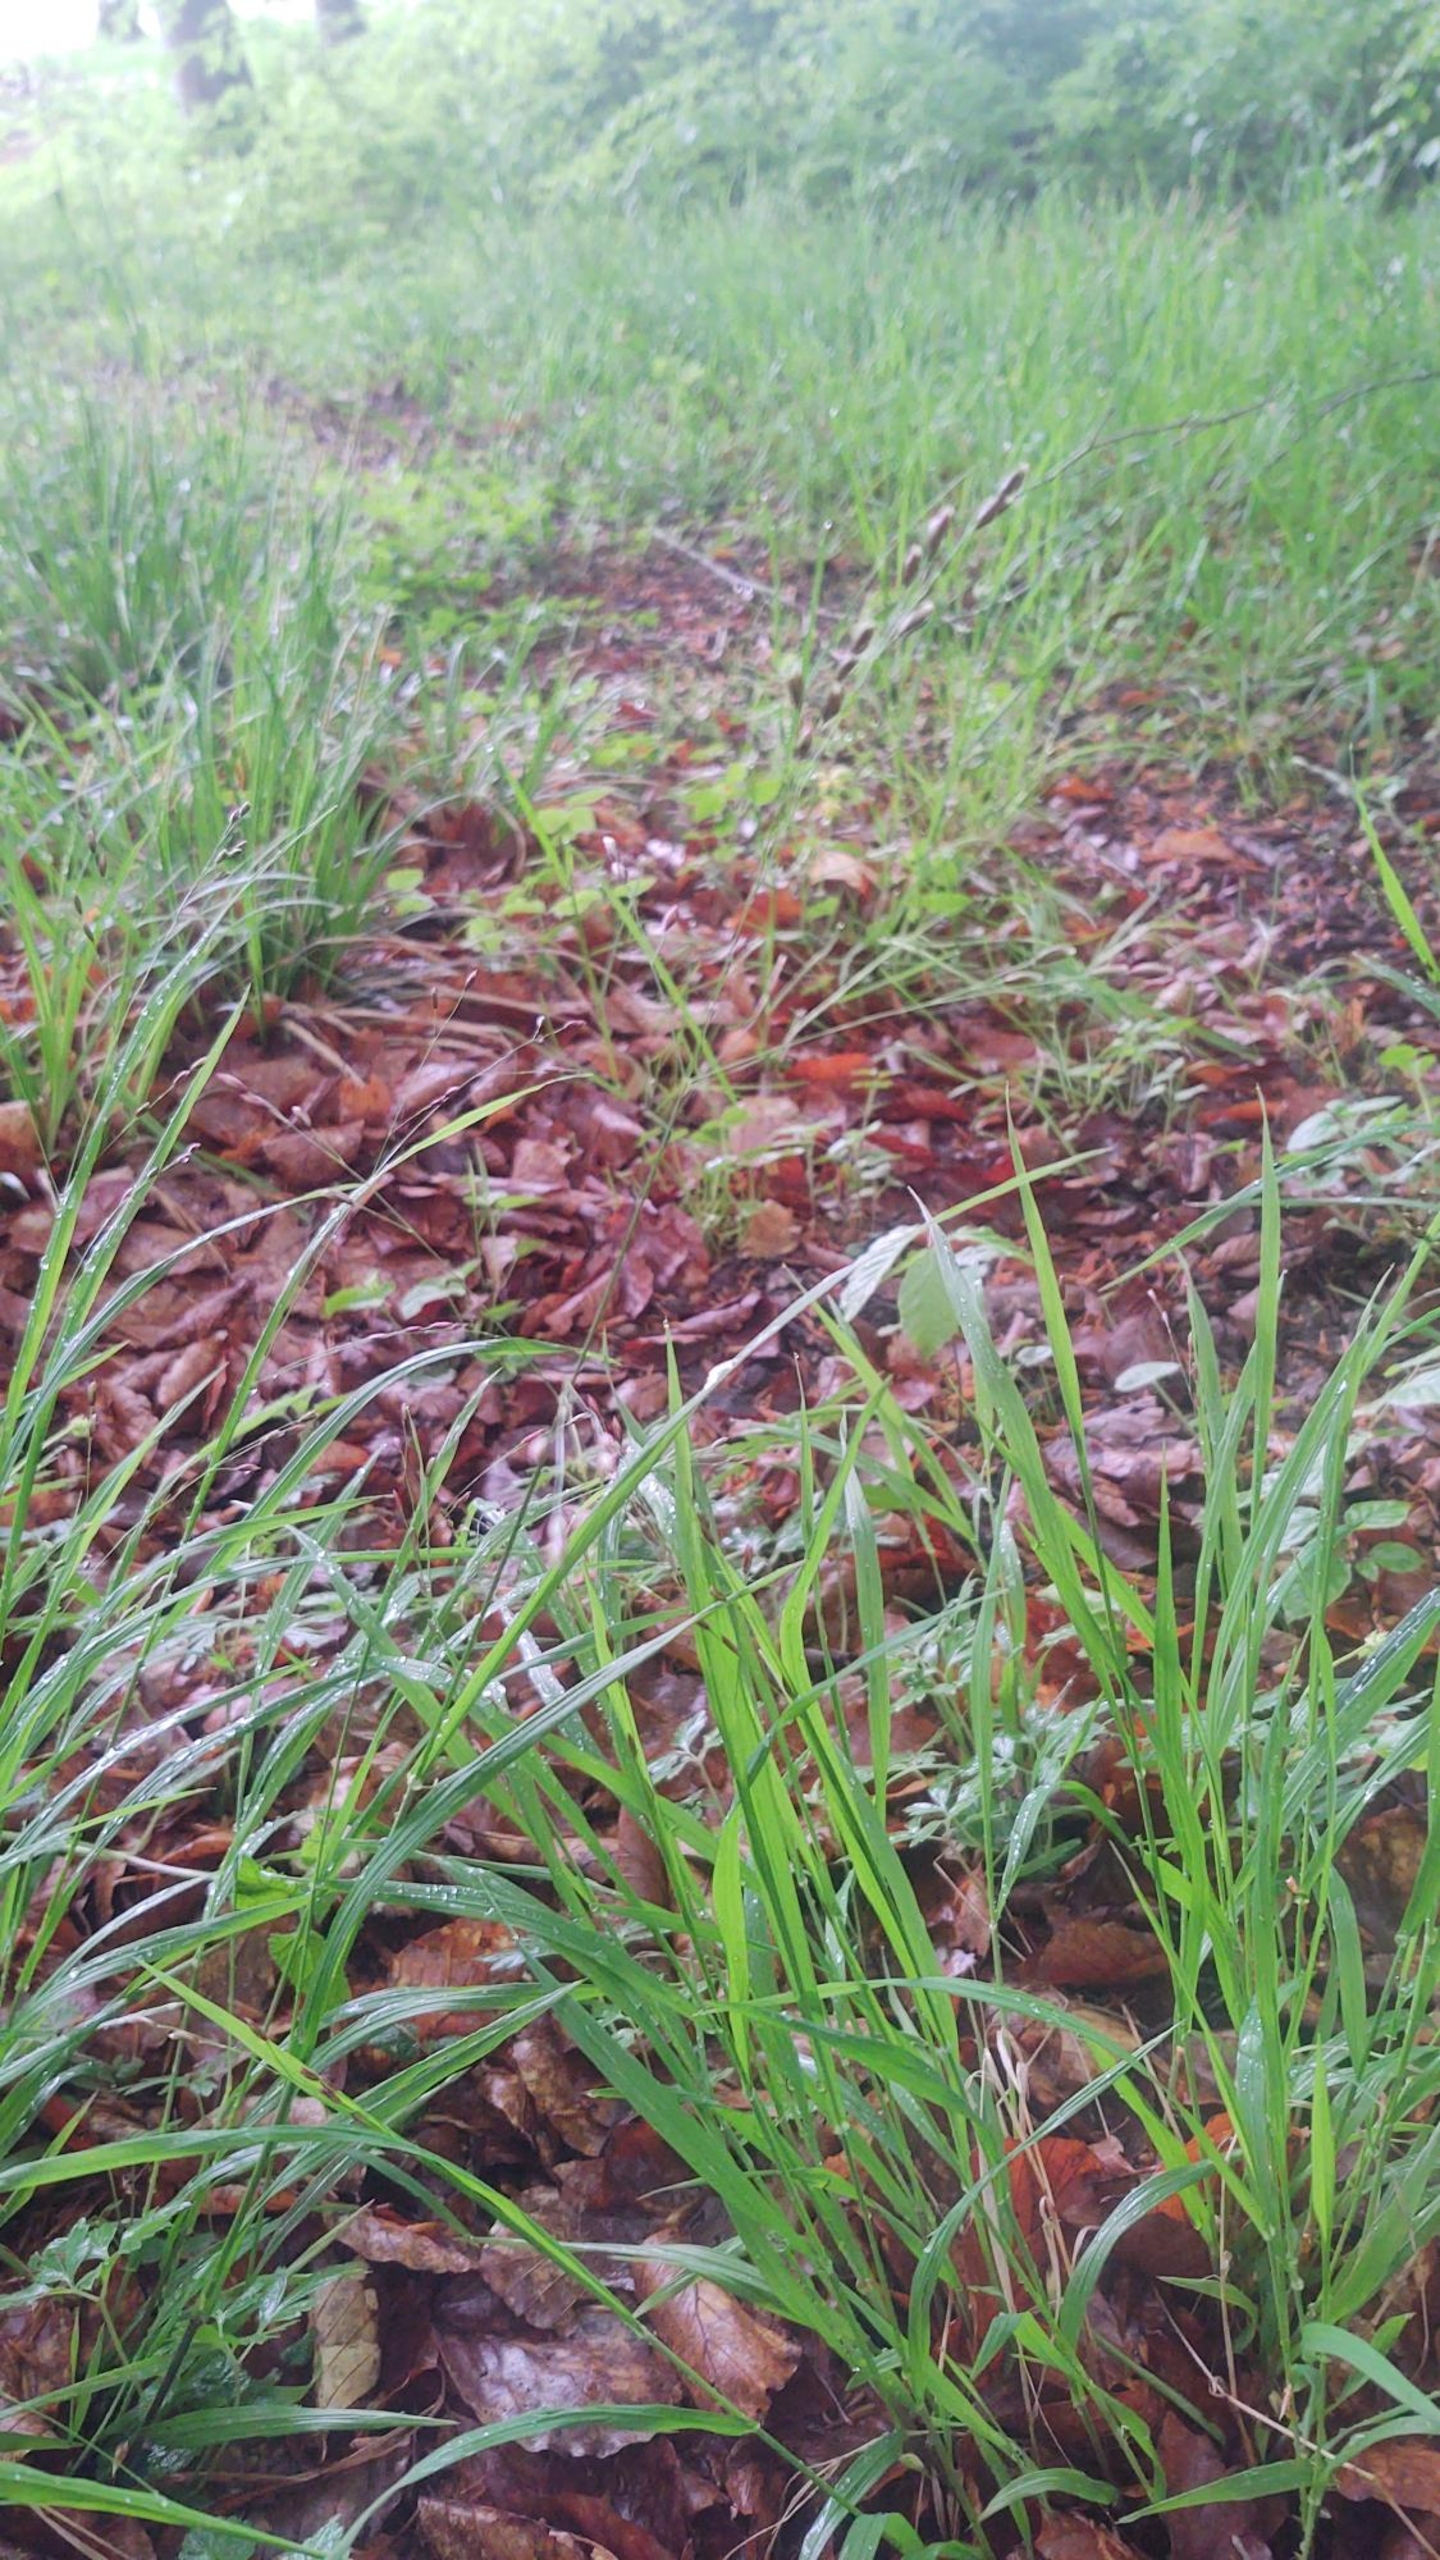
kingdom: Plantae
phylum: Tracheophyta
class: Liliopsida
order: Poales
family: Poaceae
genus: Melica
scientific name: Melica uniflora
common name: Enblomstret flitteraks
